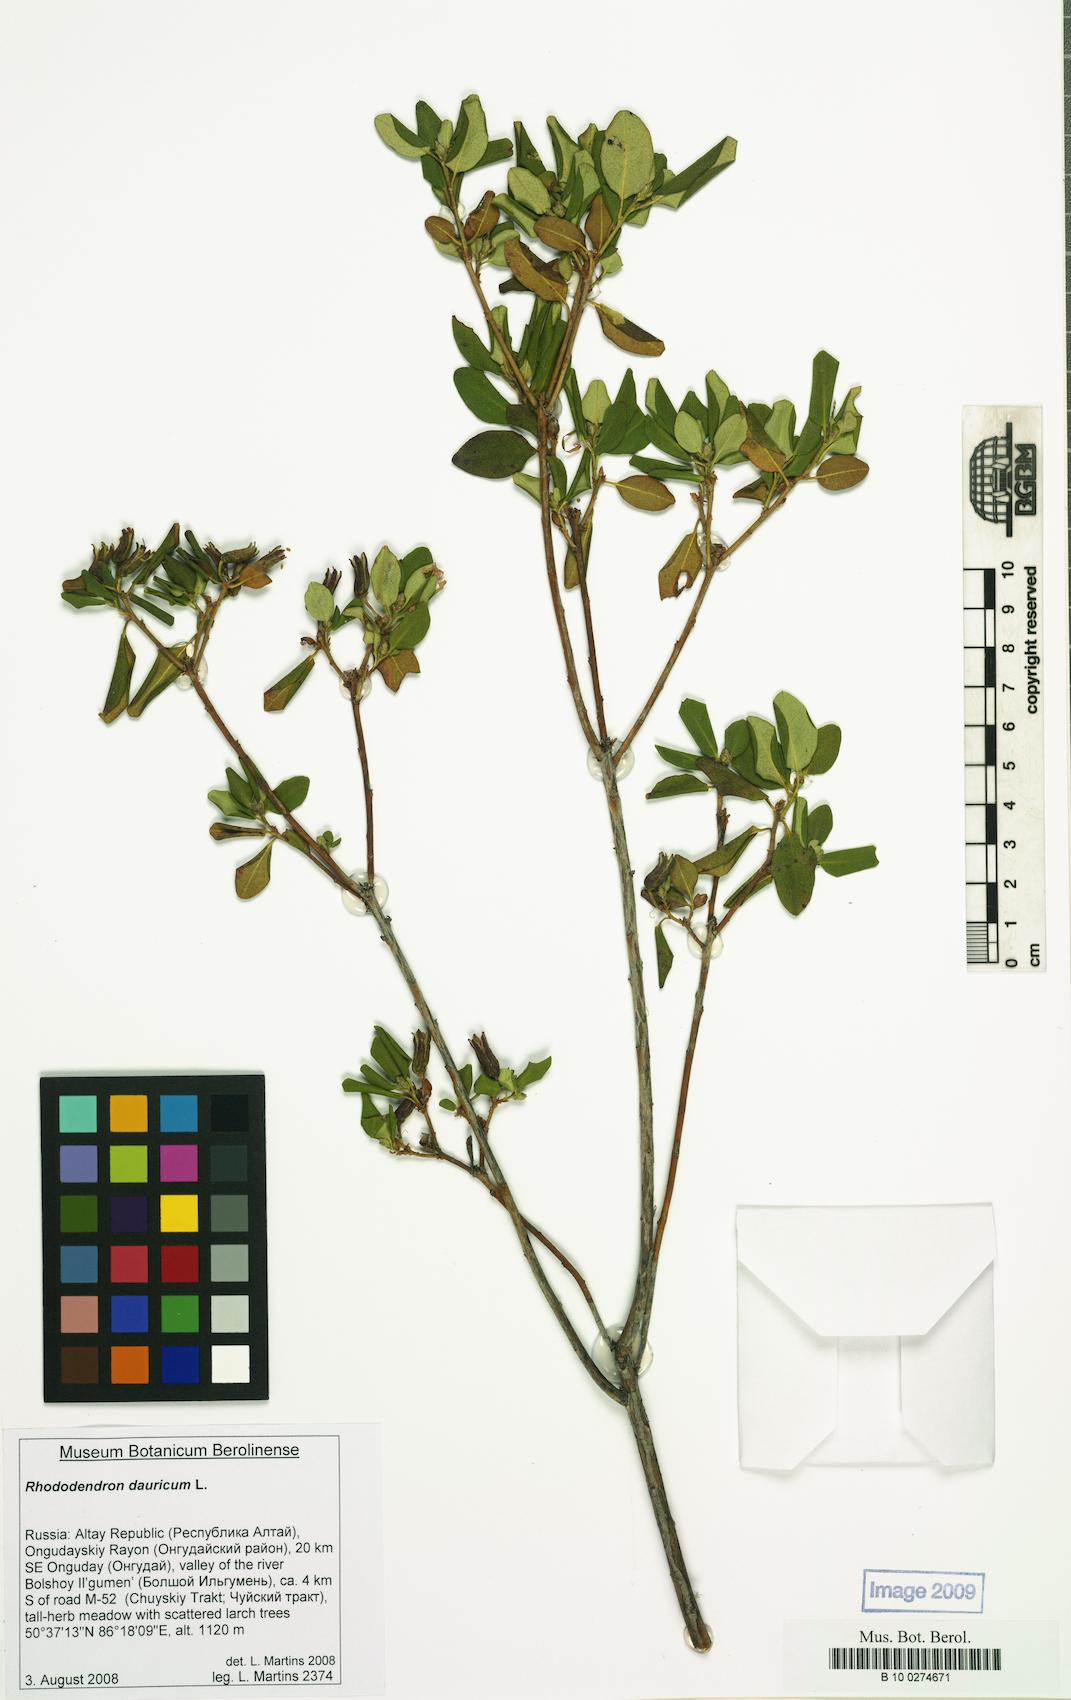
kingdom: Plantae
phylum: Tracheophyta
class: Magnoliopsida
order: Ericales
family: Ericaceae
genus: Rhododendron
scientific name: Rhododendron dauricum
